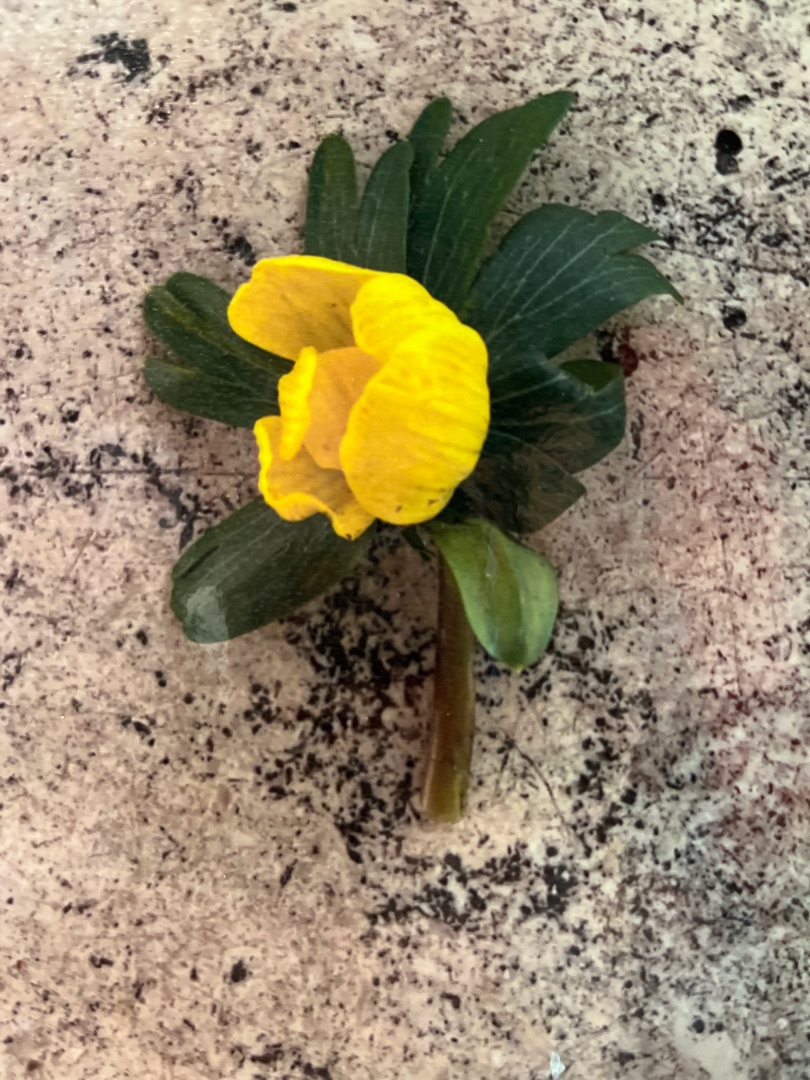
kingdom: Plantae
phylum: Tracheophyta
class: Magnoliopsida
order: Ranunculales
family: Ranunculaceae
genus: Eranthis
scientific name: Eranthis hyemalis
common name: Erantis
